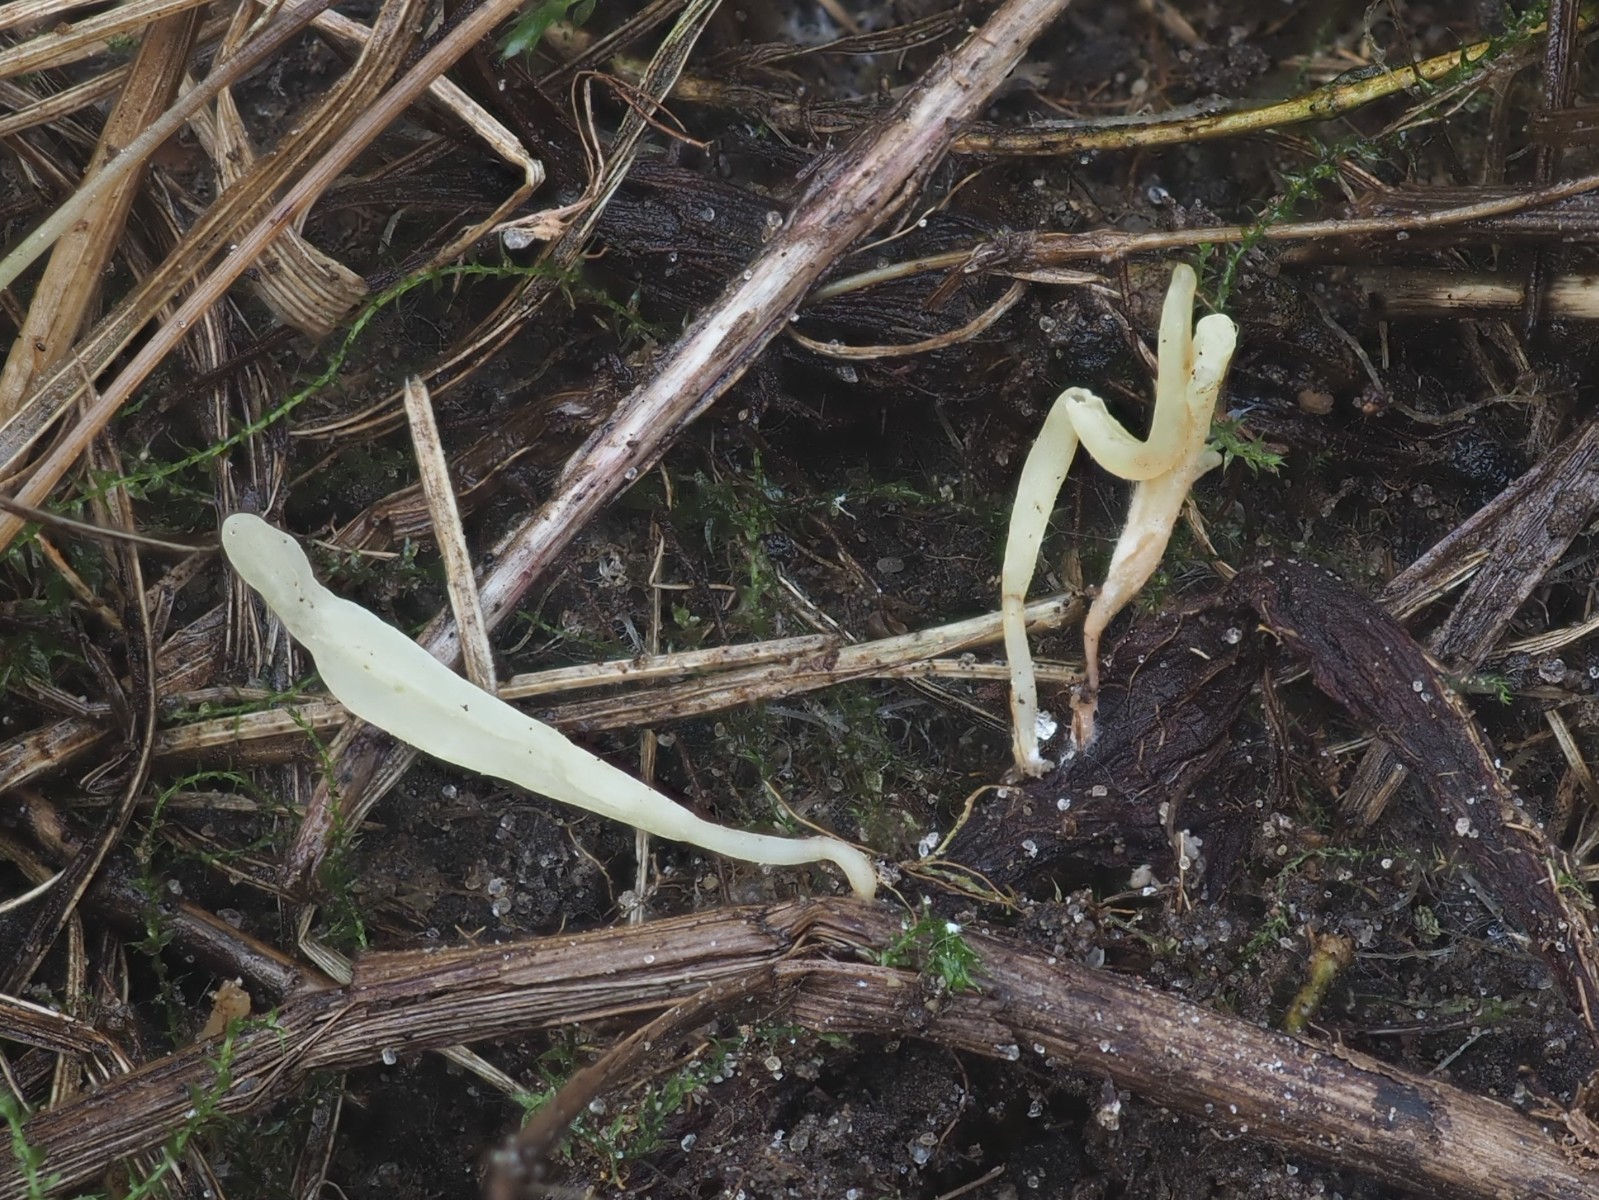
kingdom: Fungi
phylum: Basidiomycota
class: Agaricomycetes
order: Agaricales
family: Clavariaceae
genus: Ramariopsis
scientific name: Ramariopsis luteonana
